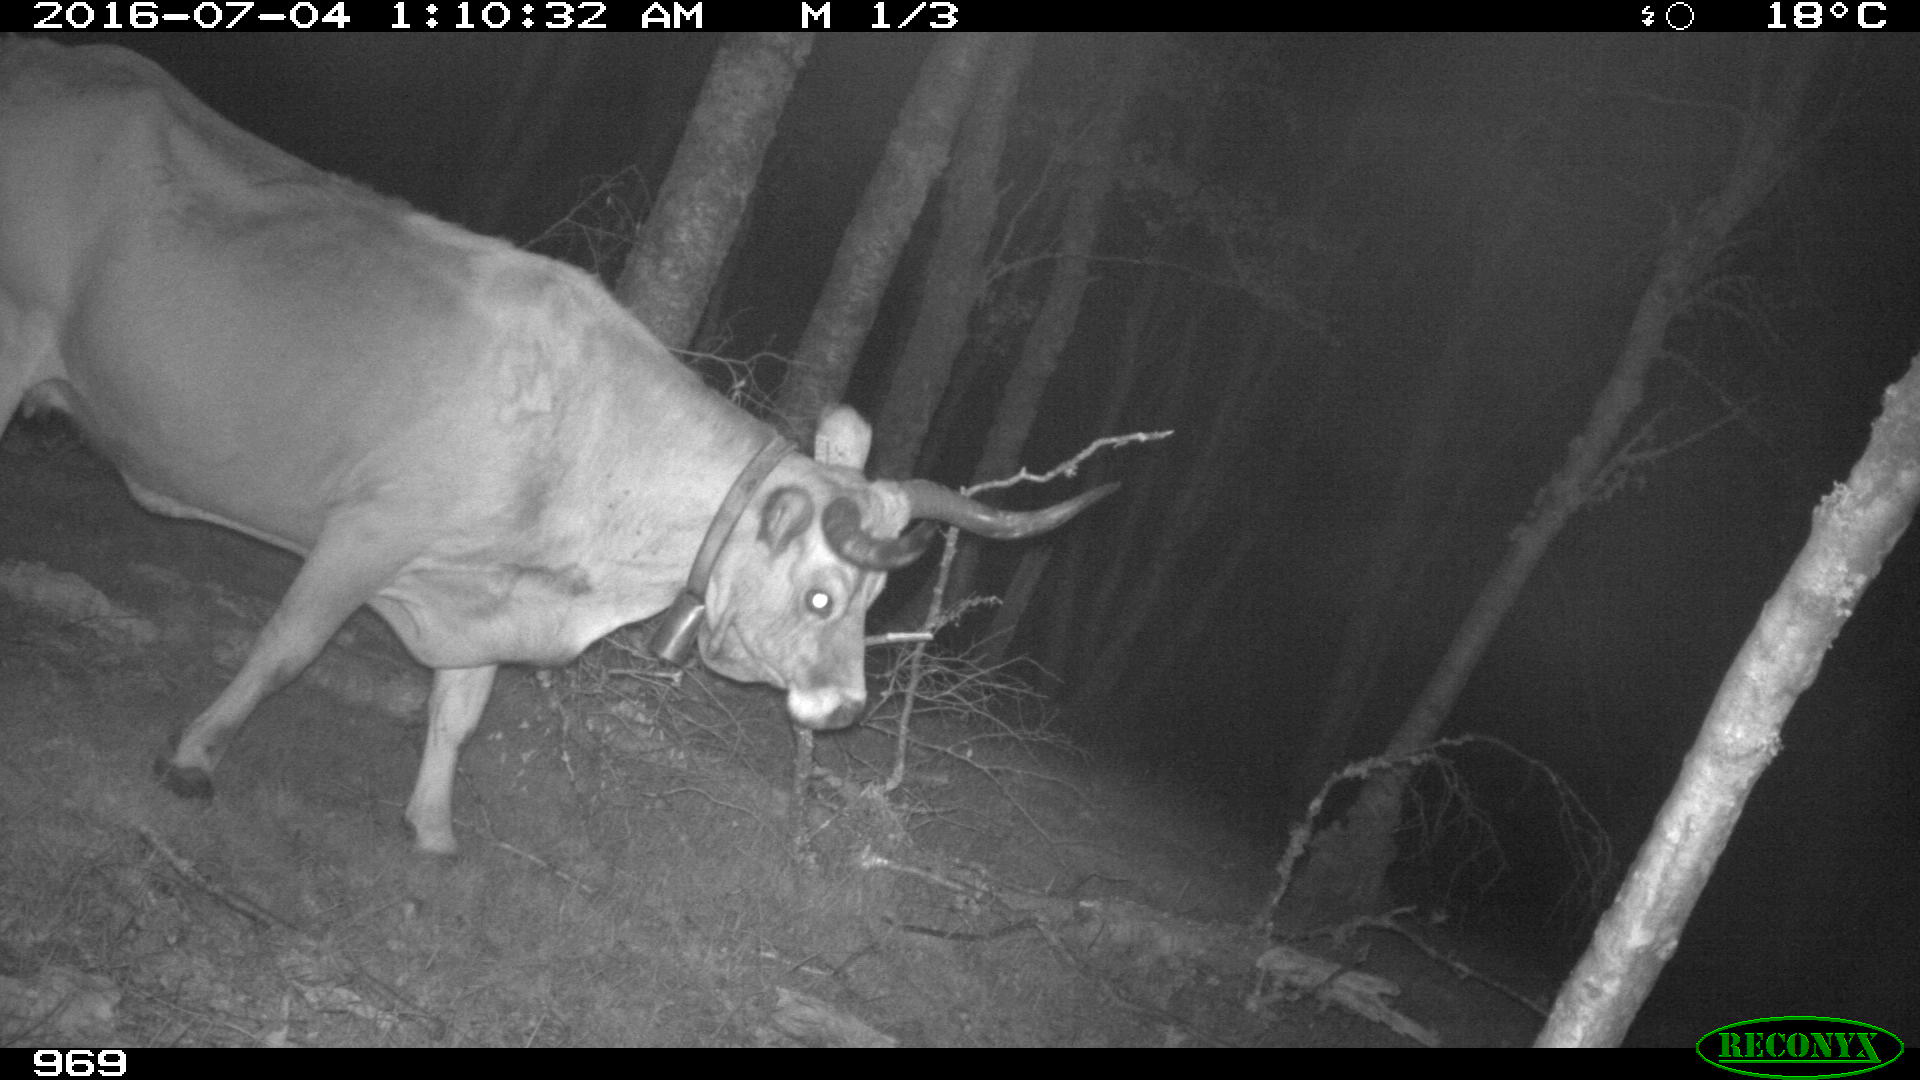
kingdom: Animalia
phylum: Chordata
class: Mammalia
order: Artiodactyla
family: Bovidae
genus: Bos
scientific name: Bos taurus
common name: Domesticated cattle
